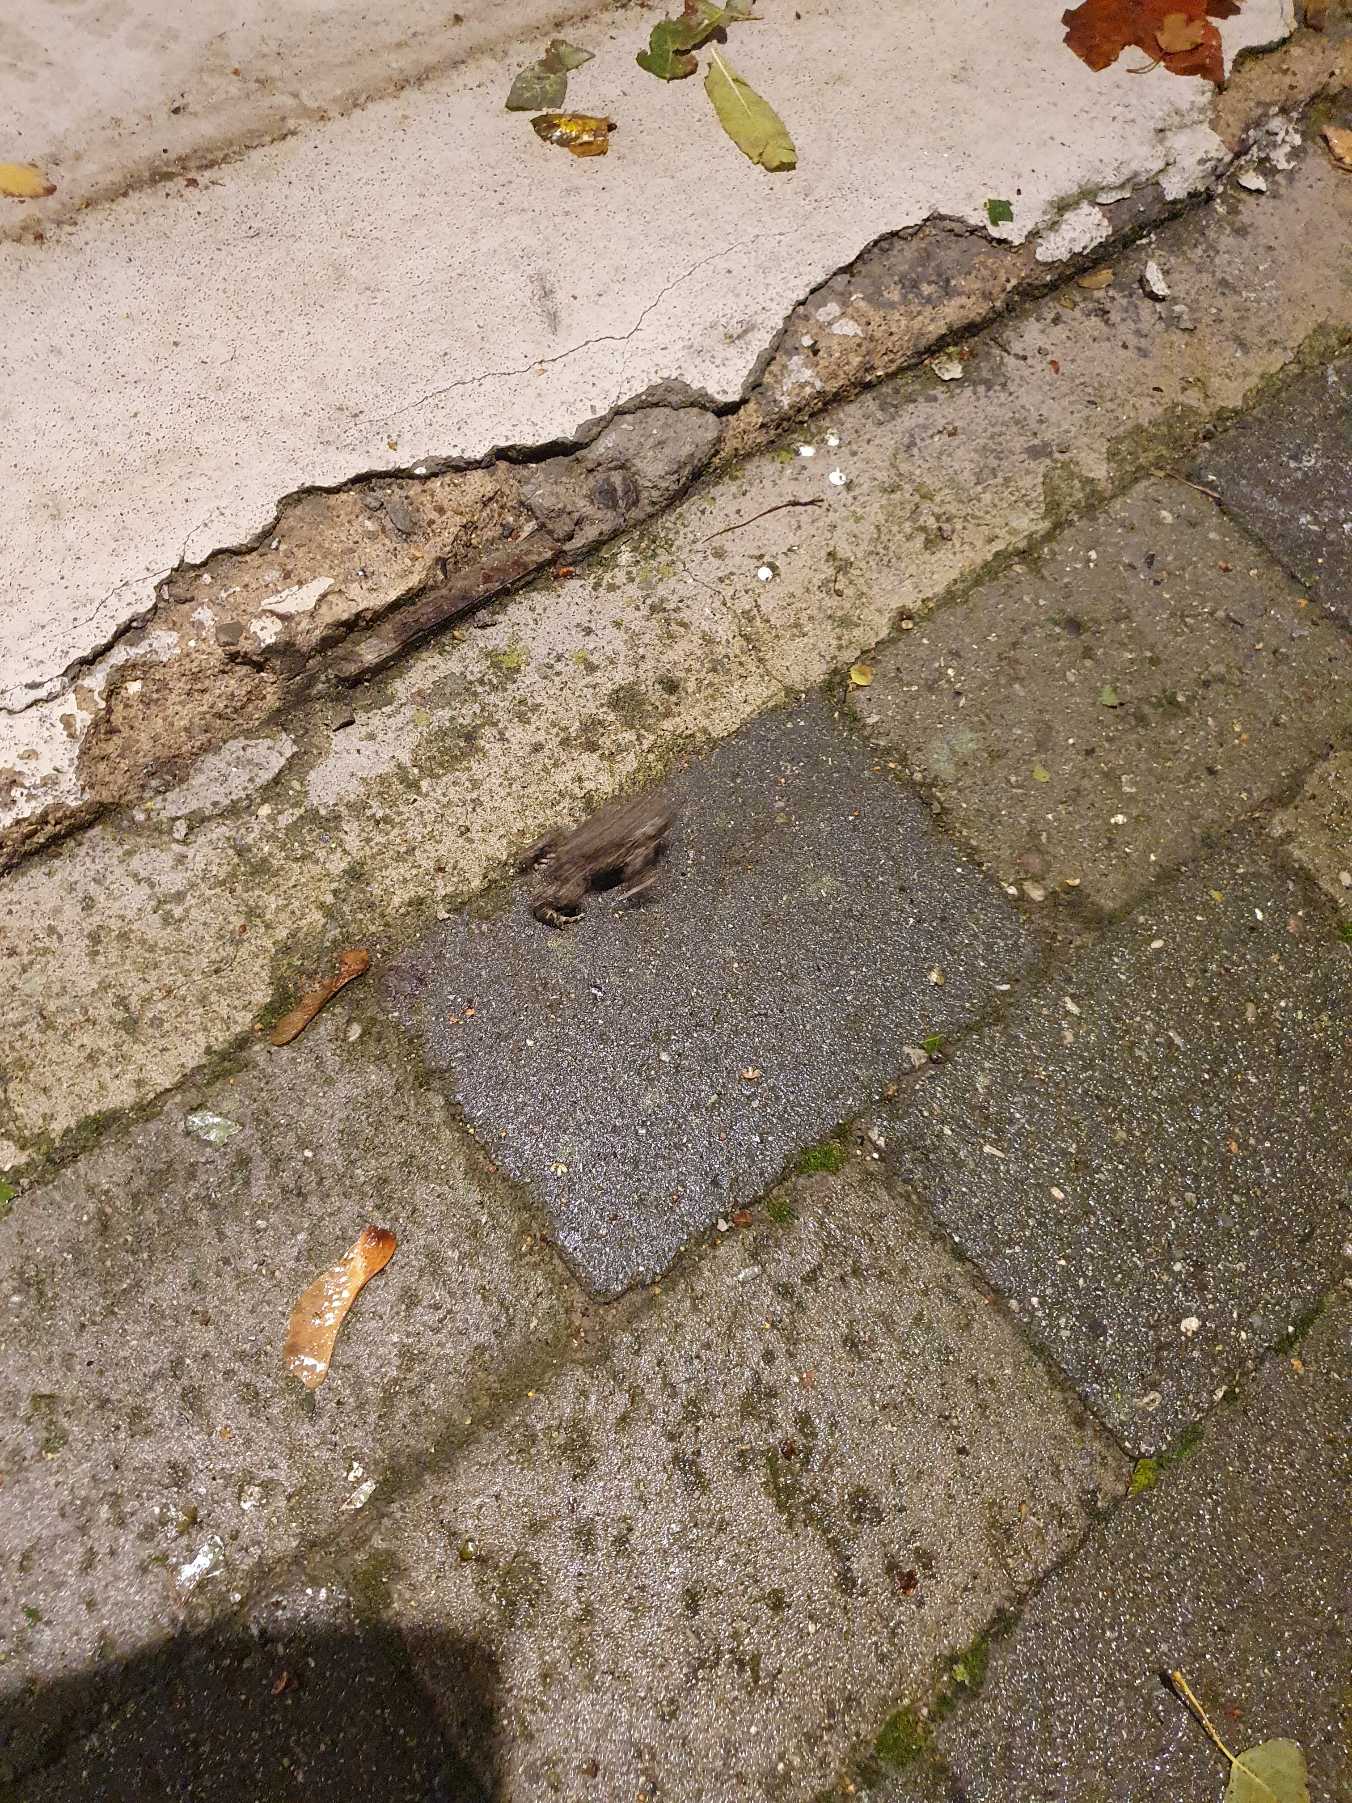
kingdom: Animalia
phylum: Chordata
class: Amphibia
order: Anura
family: Bufonidae
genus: Bufotes
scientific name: Bufotes viridis
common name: Grønbroget tudse
